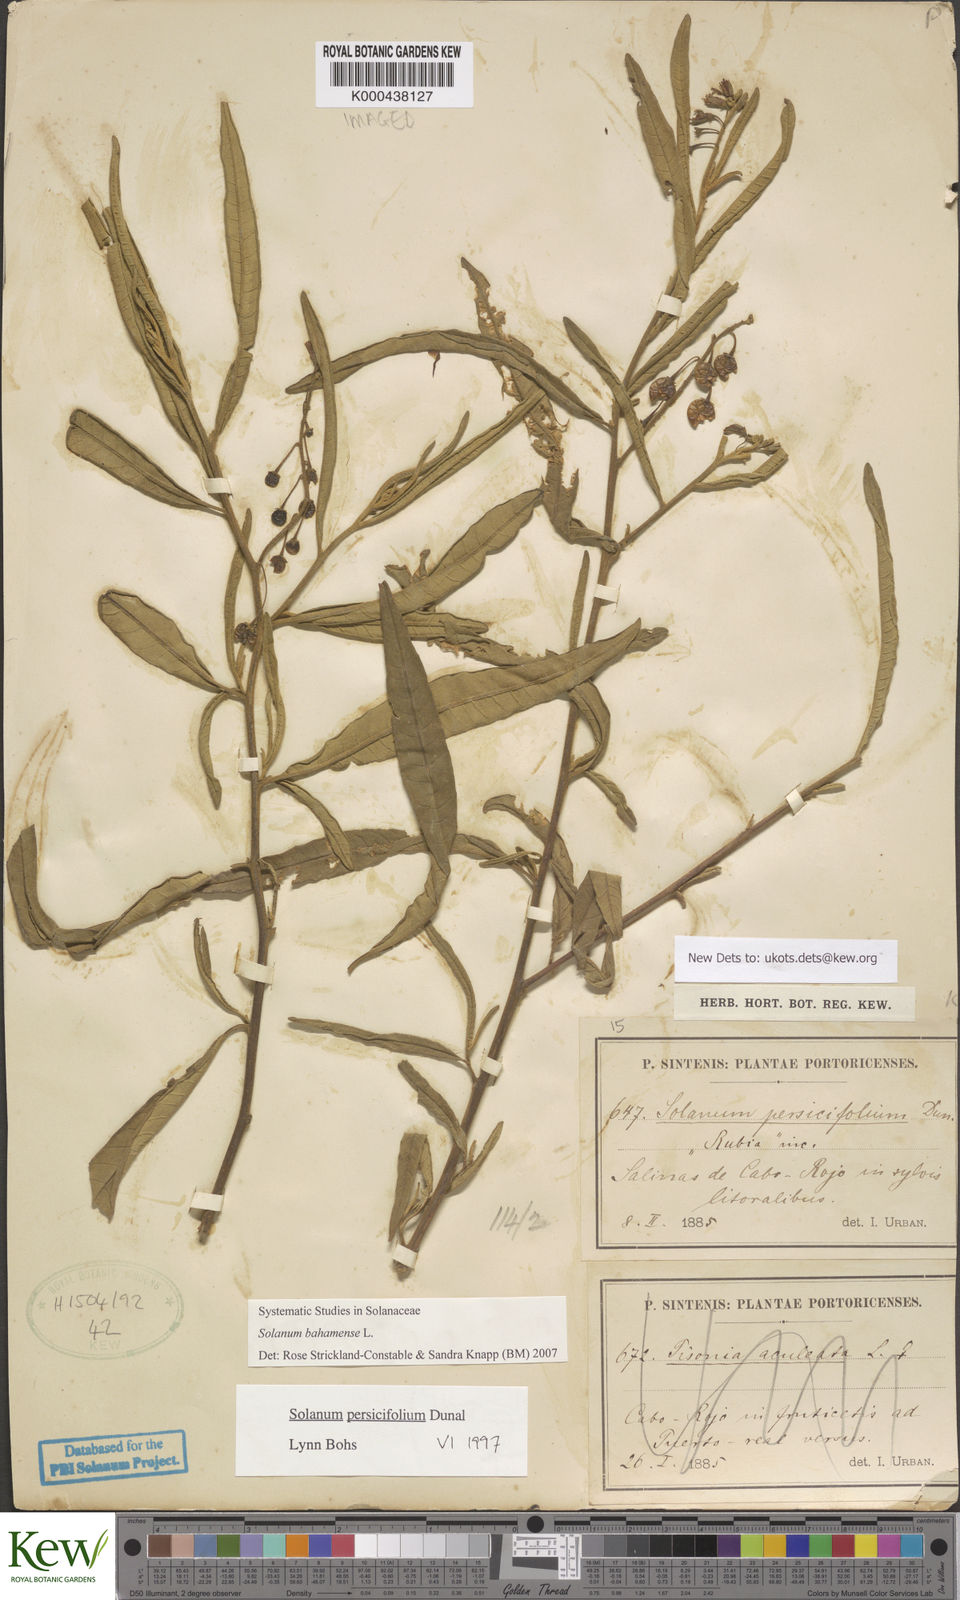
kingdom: Plantae
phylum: Tracheophyta
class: Magnoliopsida
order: Solanales
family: Solanaceae
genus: Solanum
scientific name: Solanum bahamense
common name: Canker-berry
